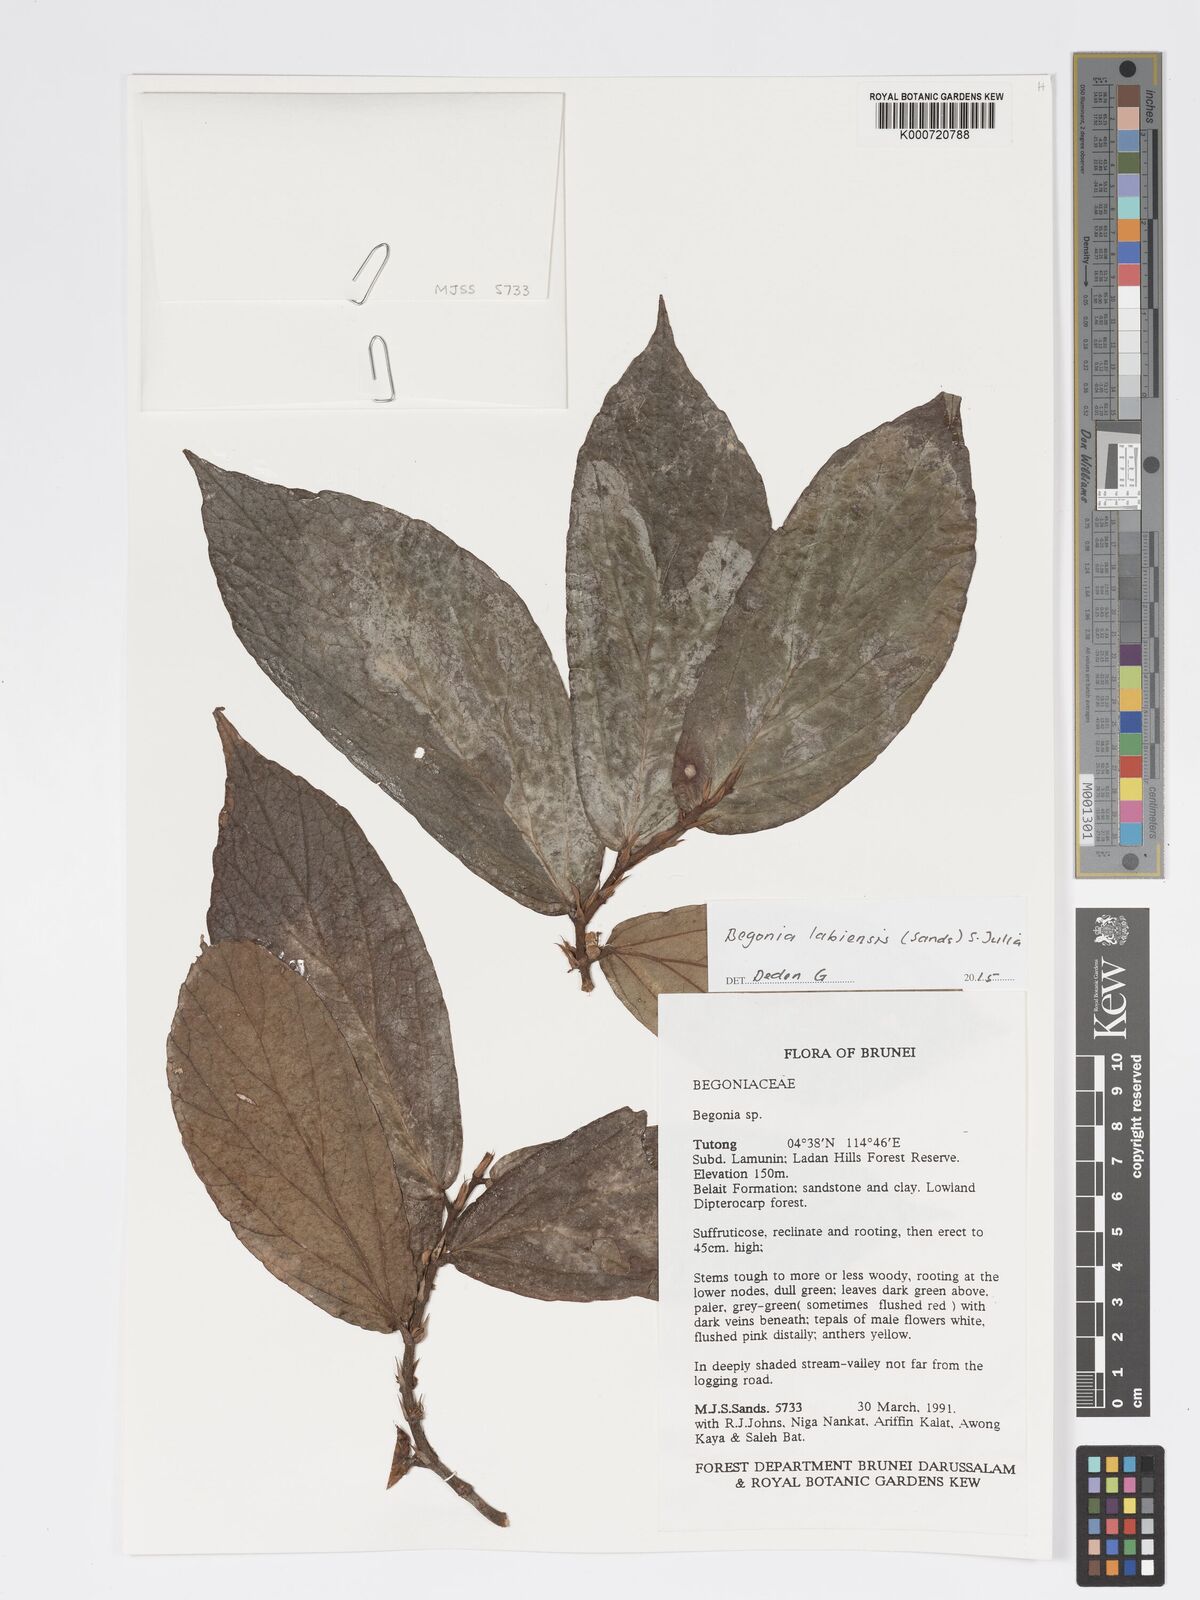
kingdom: Plantae
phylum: Tracheophyta
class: Magnoliopsida
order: Cucurbitales
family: Begoniaceae
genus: Begonia
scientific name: Begonia labiensis
